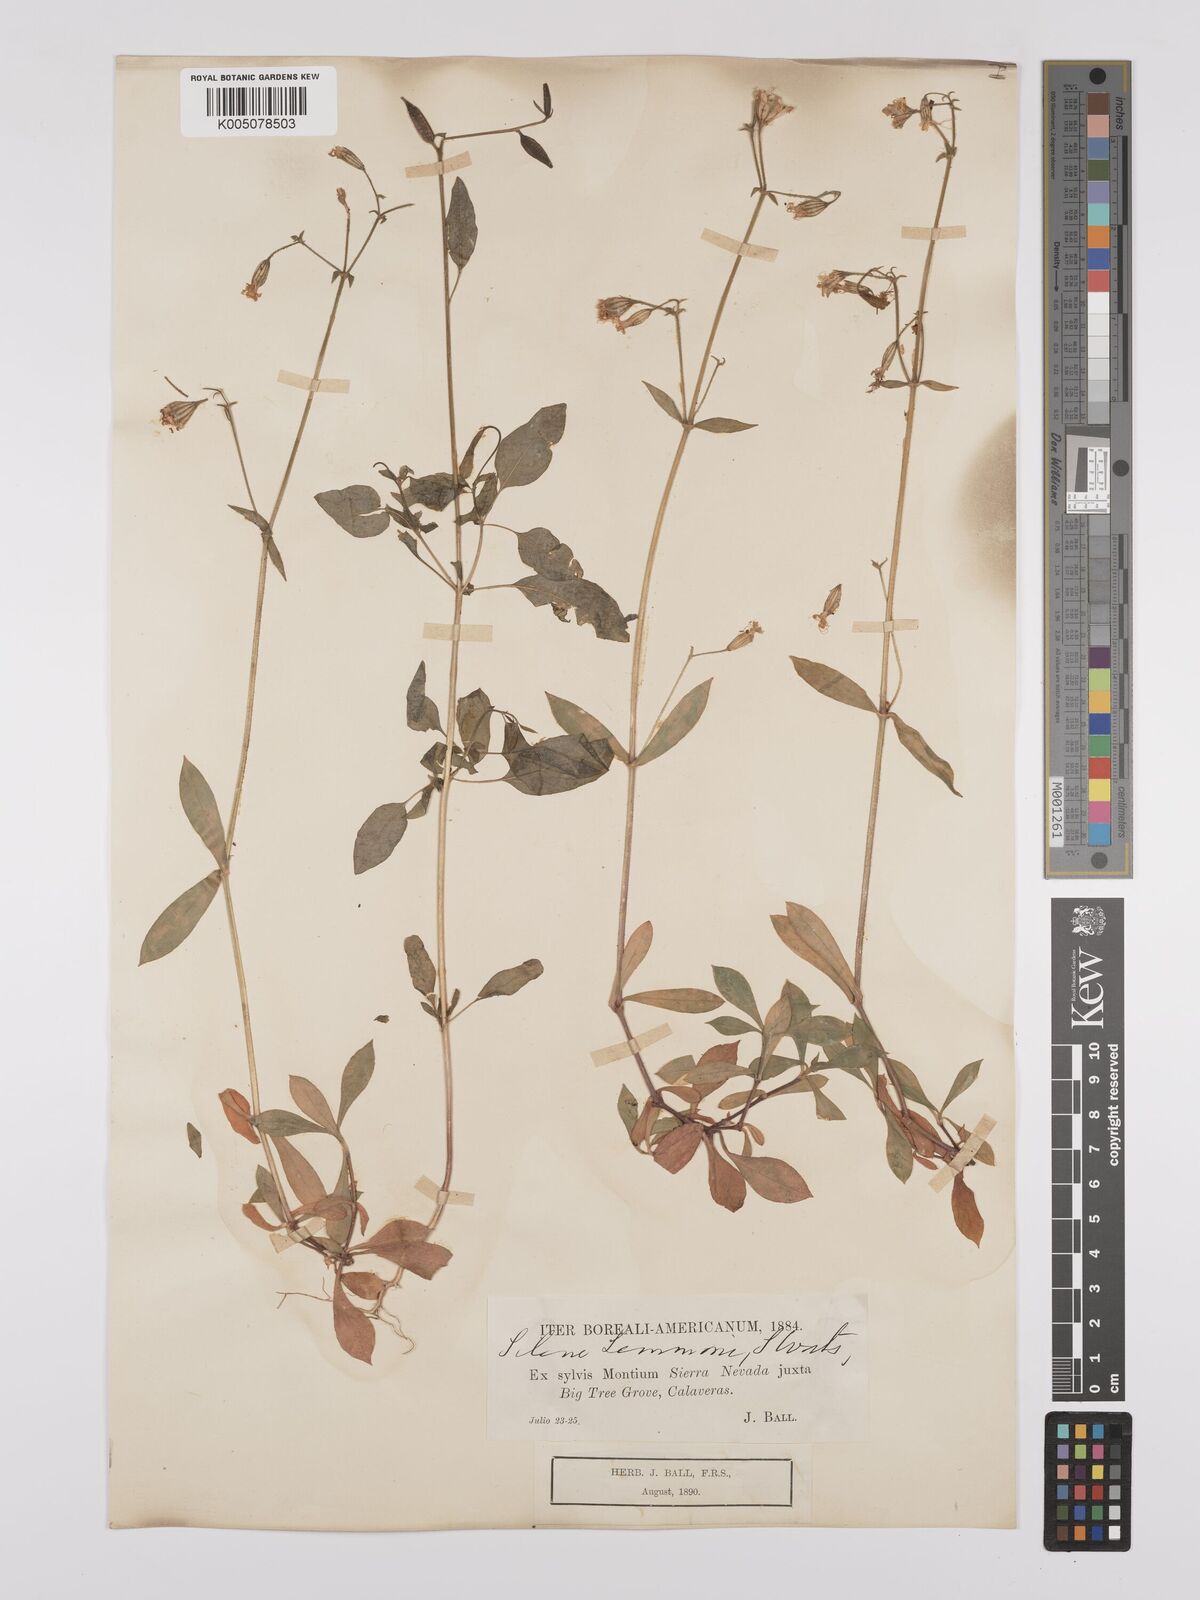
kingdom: Plantae
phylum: Tracheophyta
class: Magnoliopsida
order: Caryophyllales
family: Caryophyllaceae
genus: Silene
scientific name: Silene lemmonii
